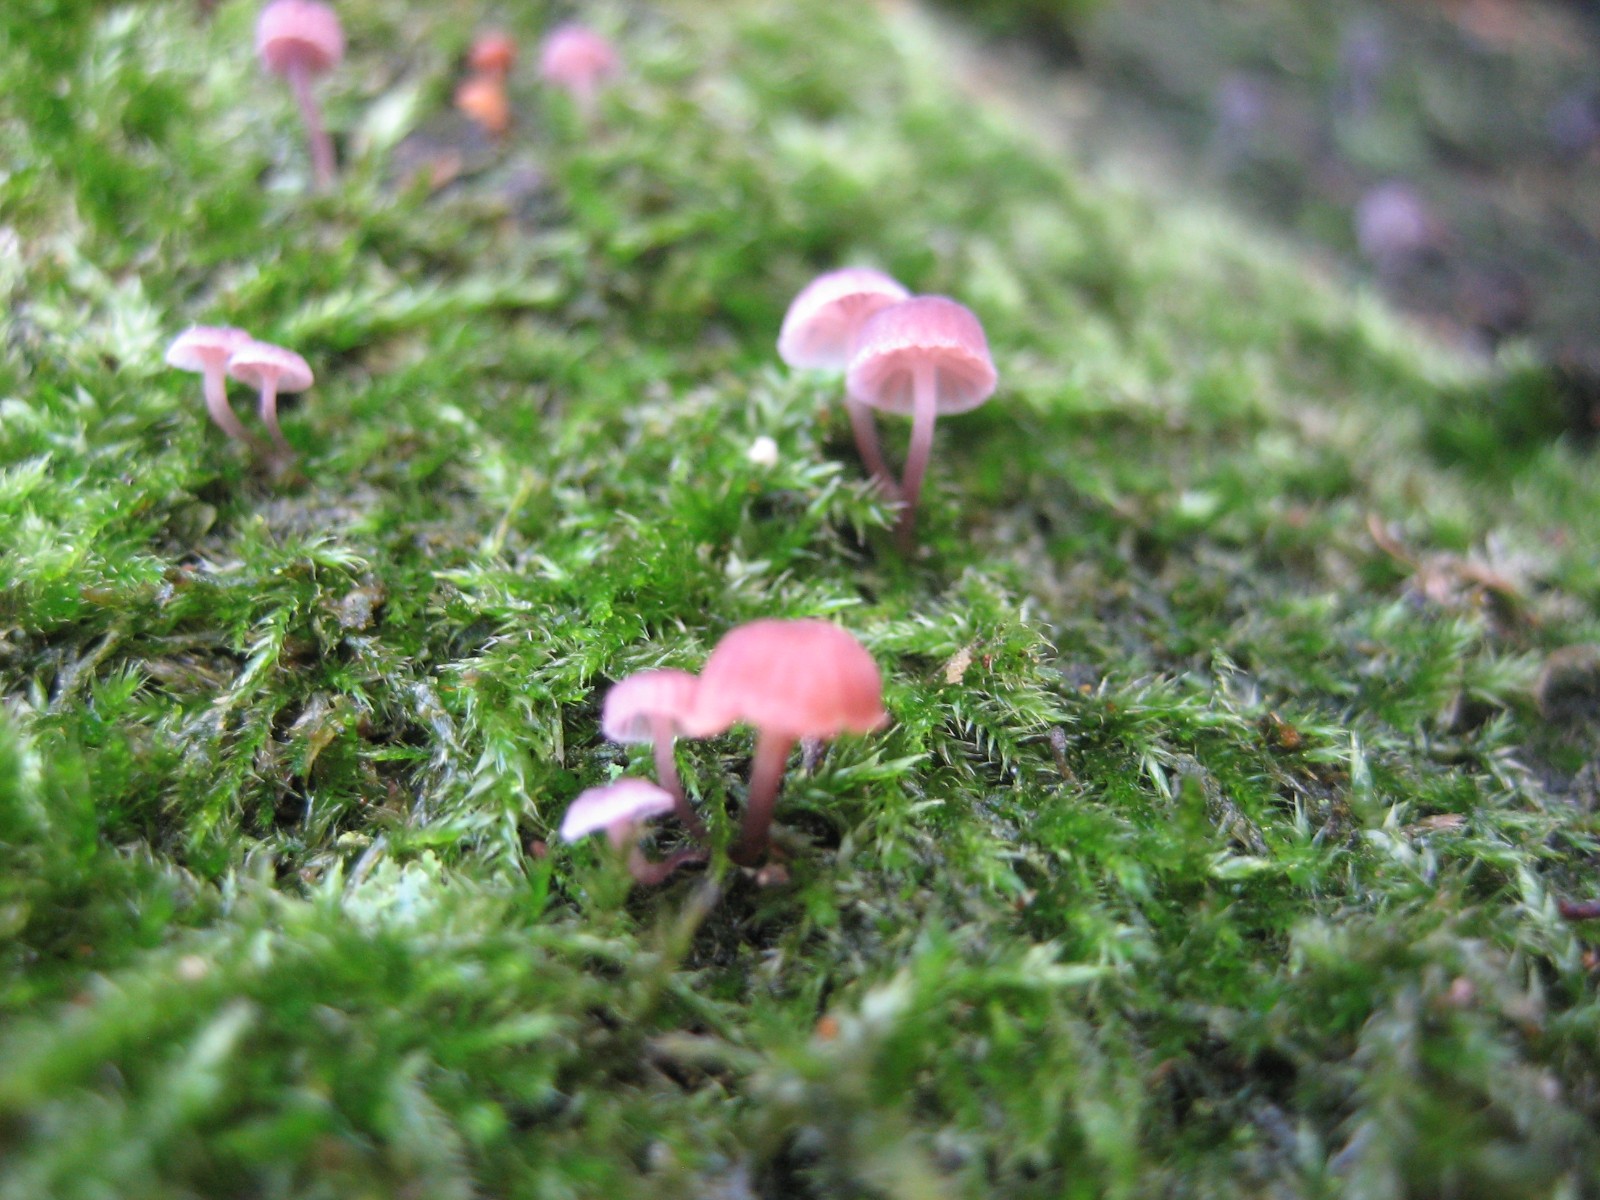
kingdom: Fungi
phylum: Basidiomycota
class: Agaricomycetes
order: Agaricales
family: Mycenaceae
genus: Mycena
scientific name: Mycena meliigena
